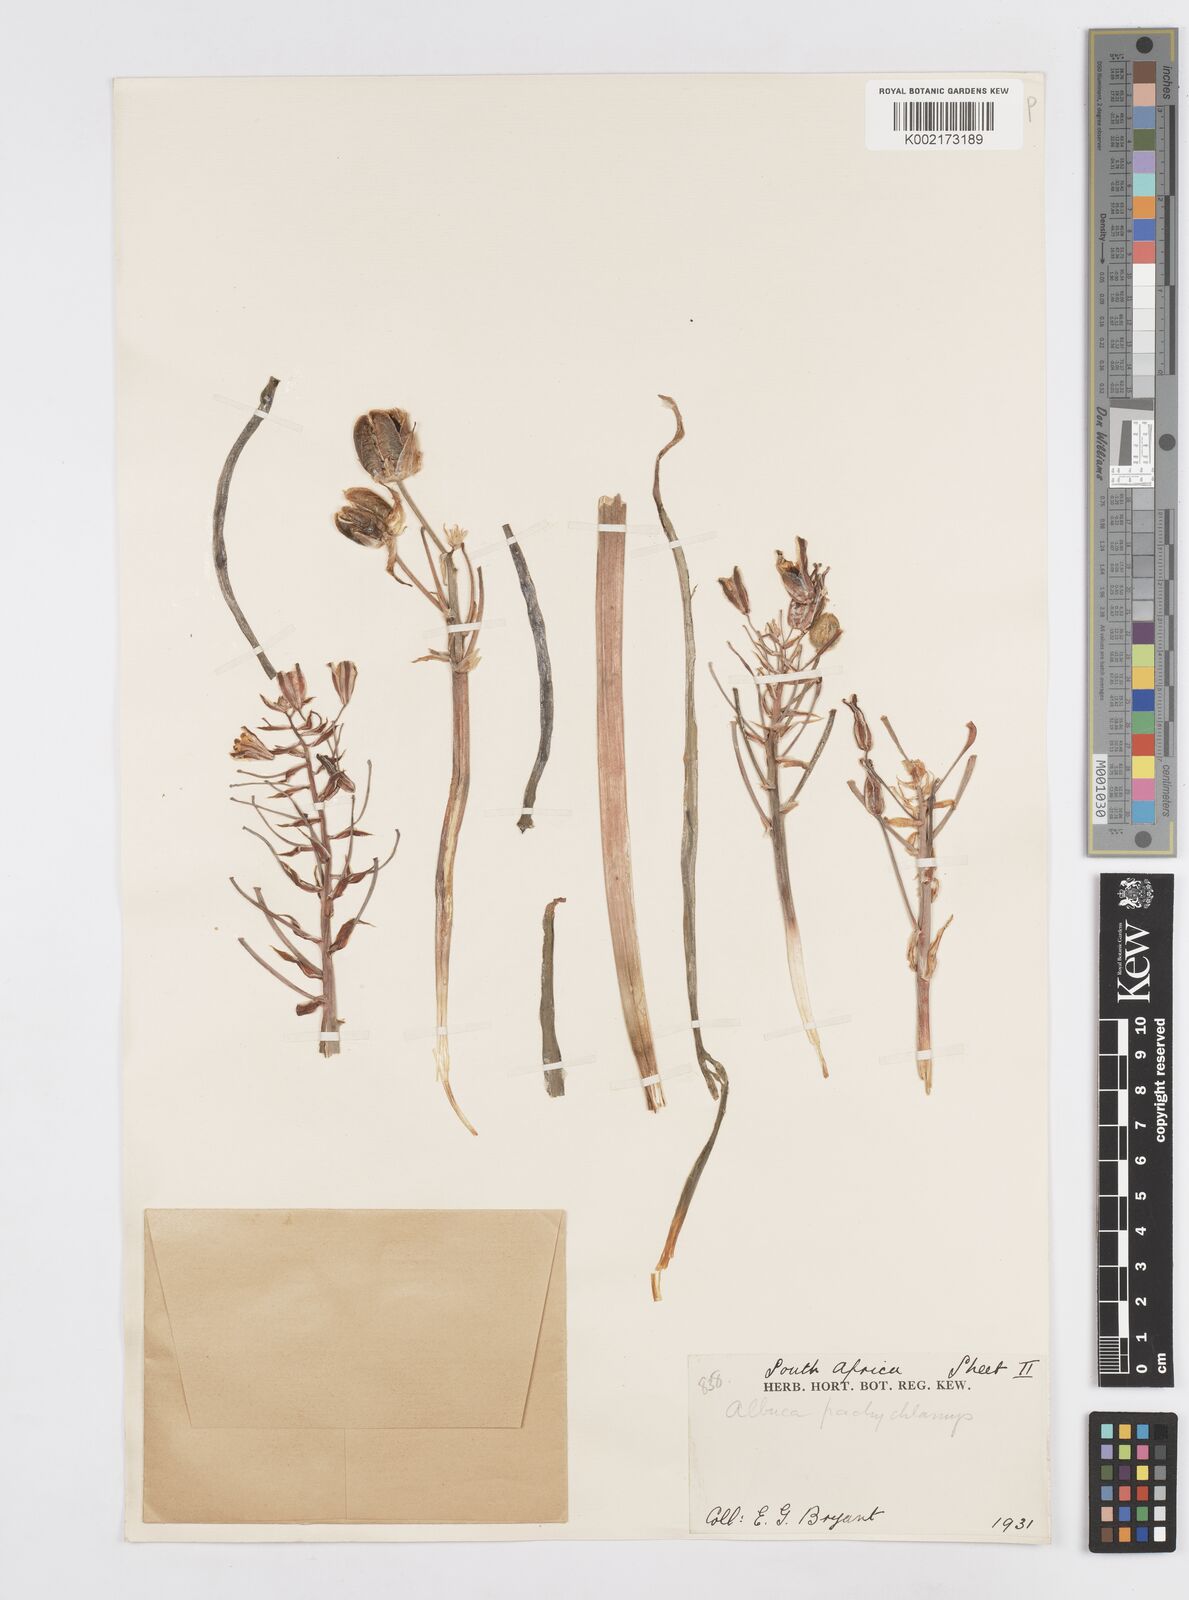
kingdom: Plantae
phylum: Tracheophyta
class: Liliopsida
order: Asparagales
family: Asparagaceae
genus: Albuca
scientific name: Albuca
